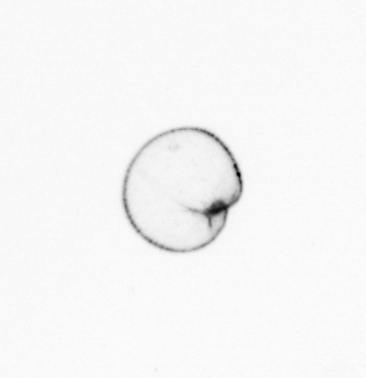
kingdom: Chromista
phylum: Myzozoa
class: Dinophyceae
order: Noctilucales
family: Noctilucaceae
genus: Noctiluca
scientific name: Noctiluca scintillans
